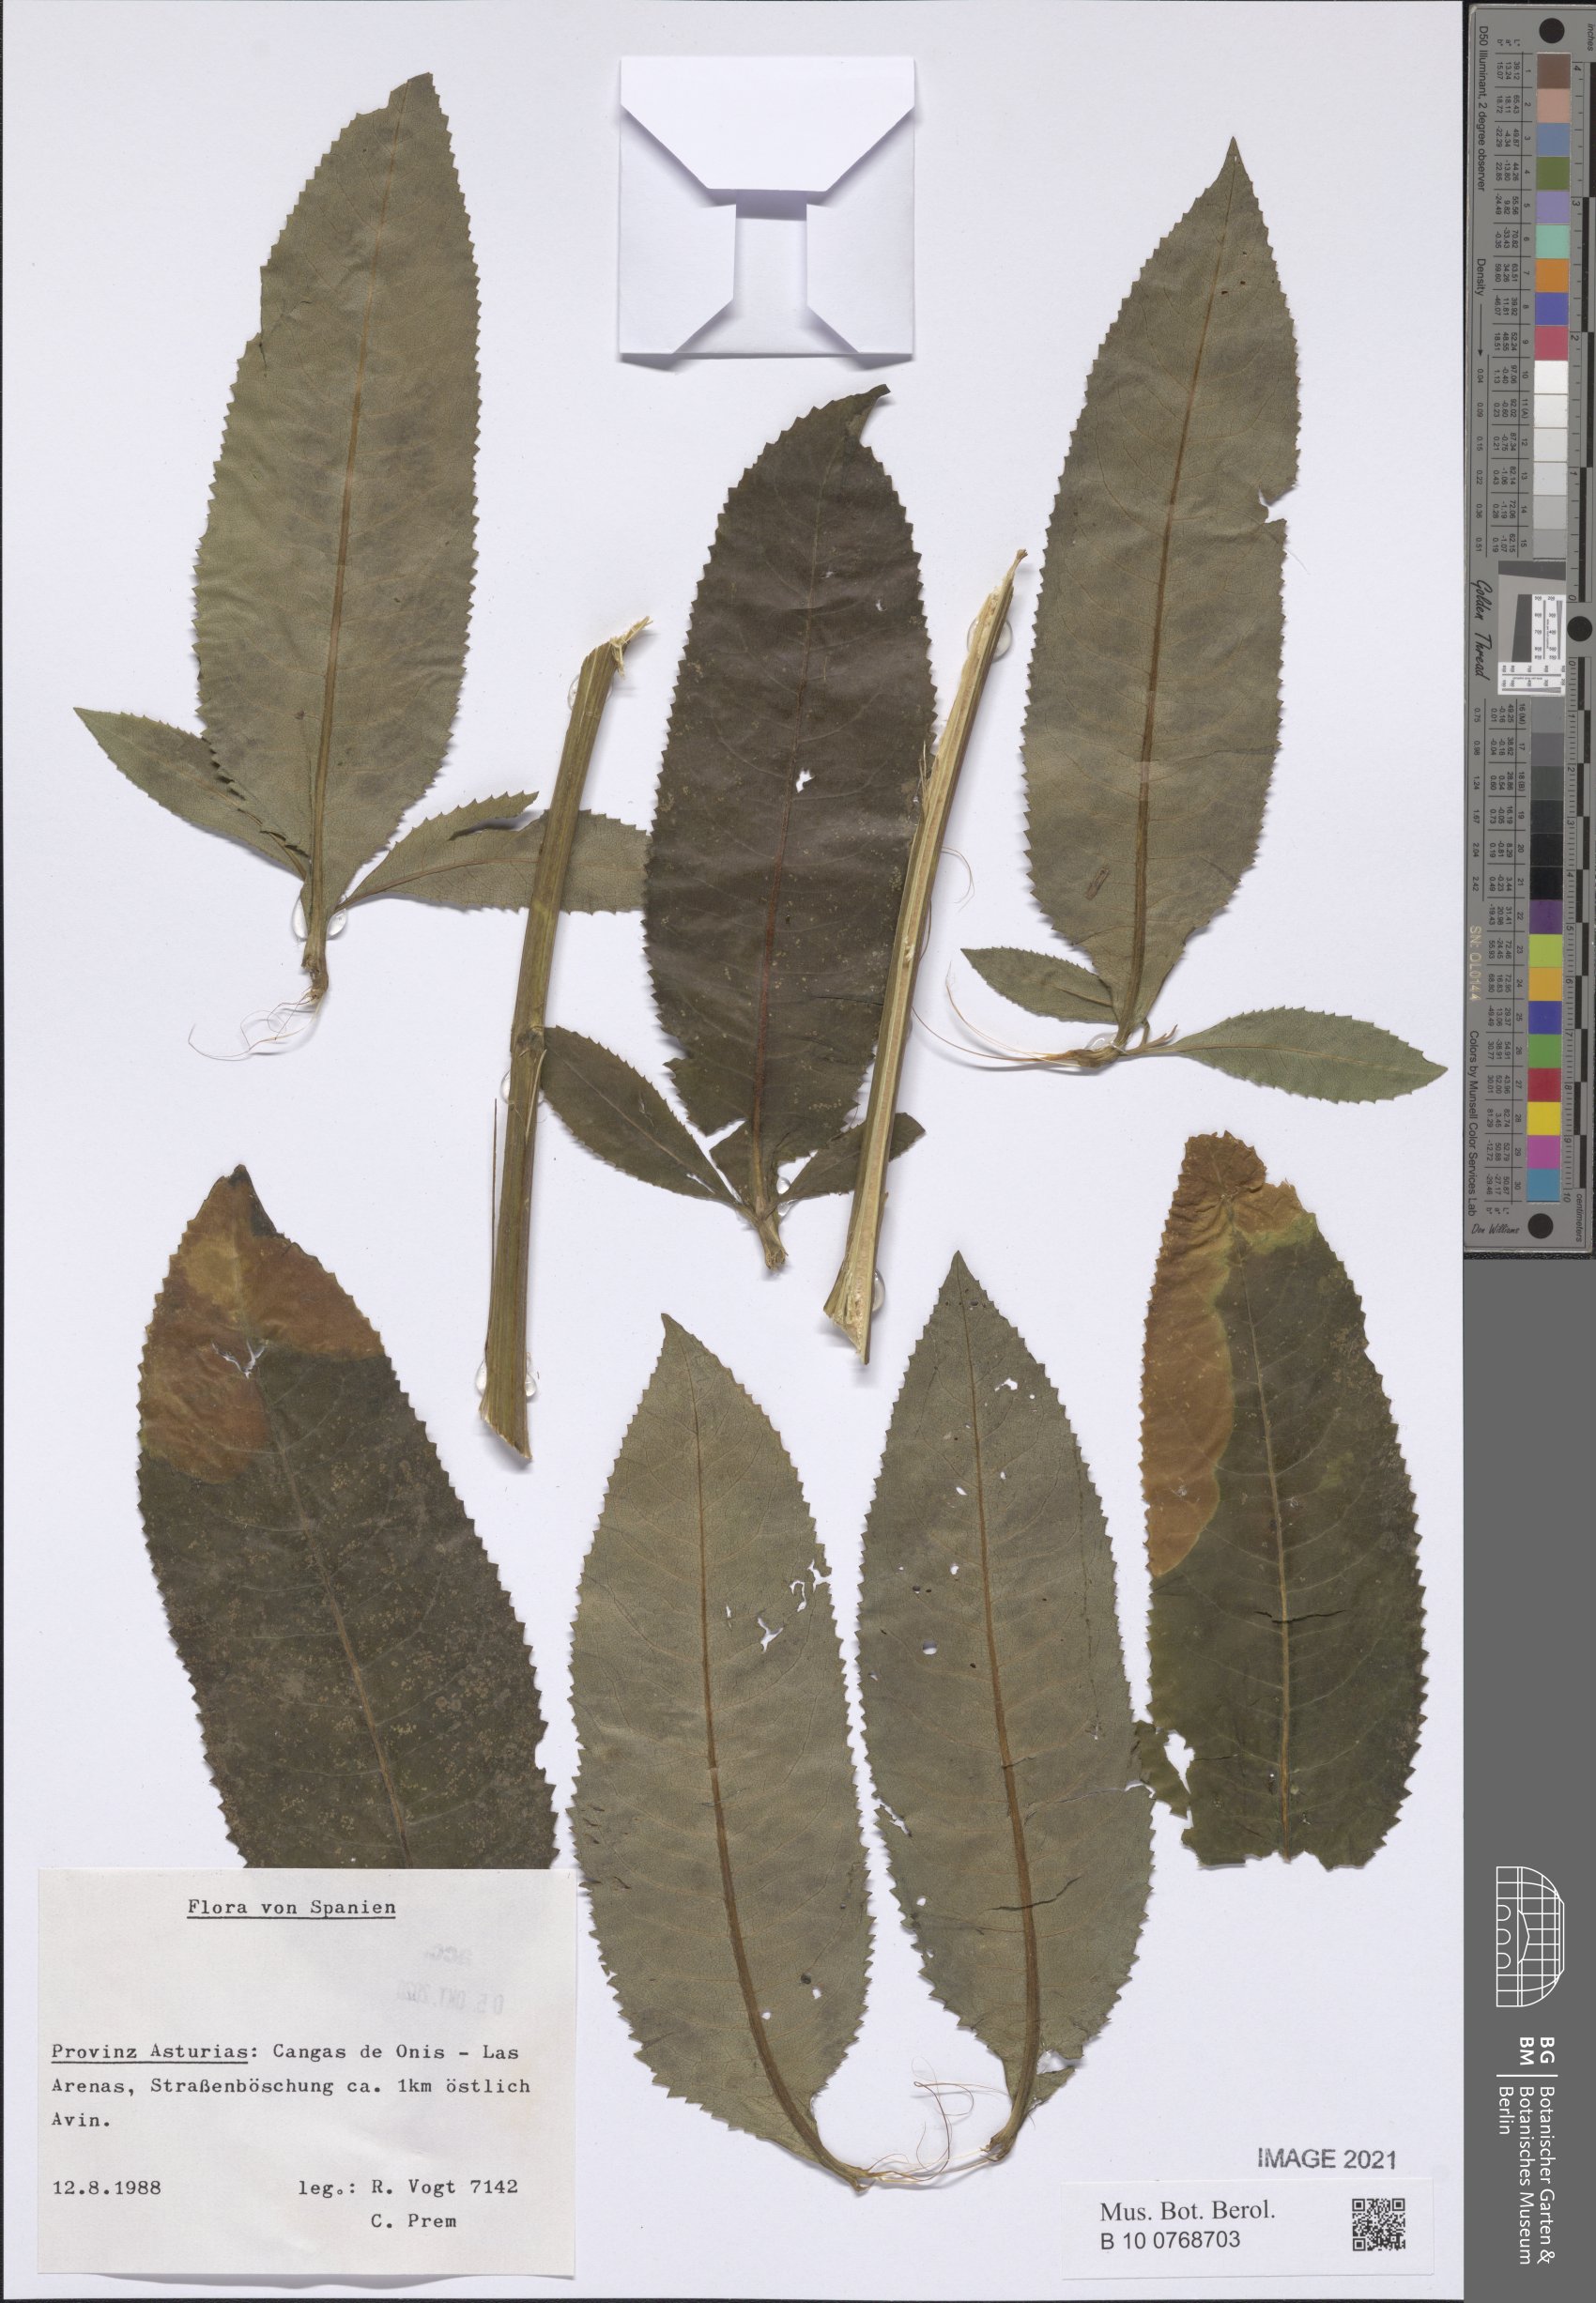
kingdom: Plantae
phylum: Tracheophyta
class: Magnoliopsida
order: Asterales
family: Asteraceae
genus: Senecio
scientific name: Senecio
